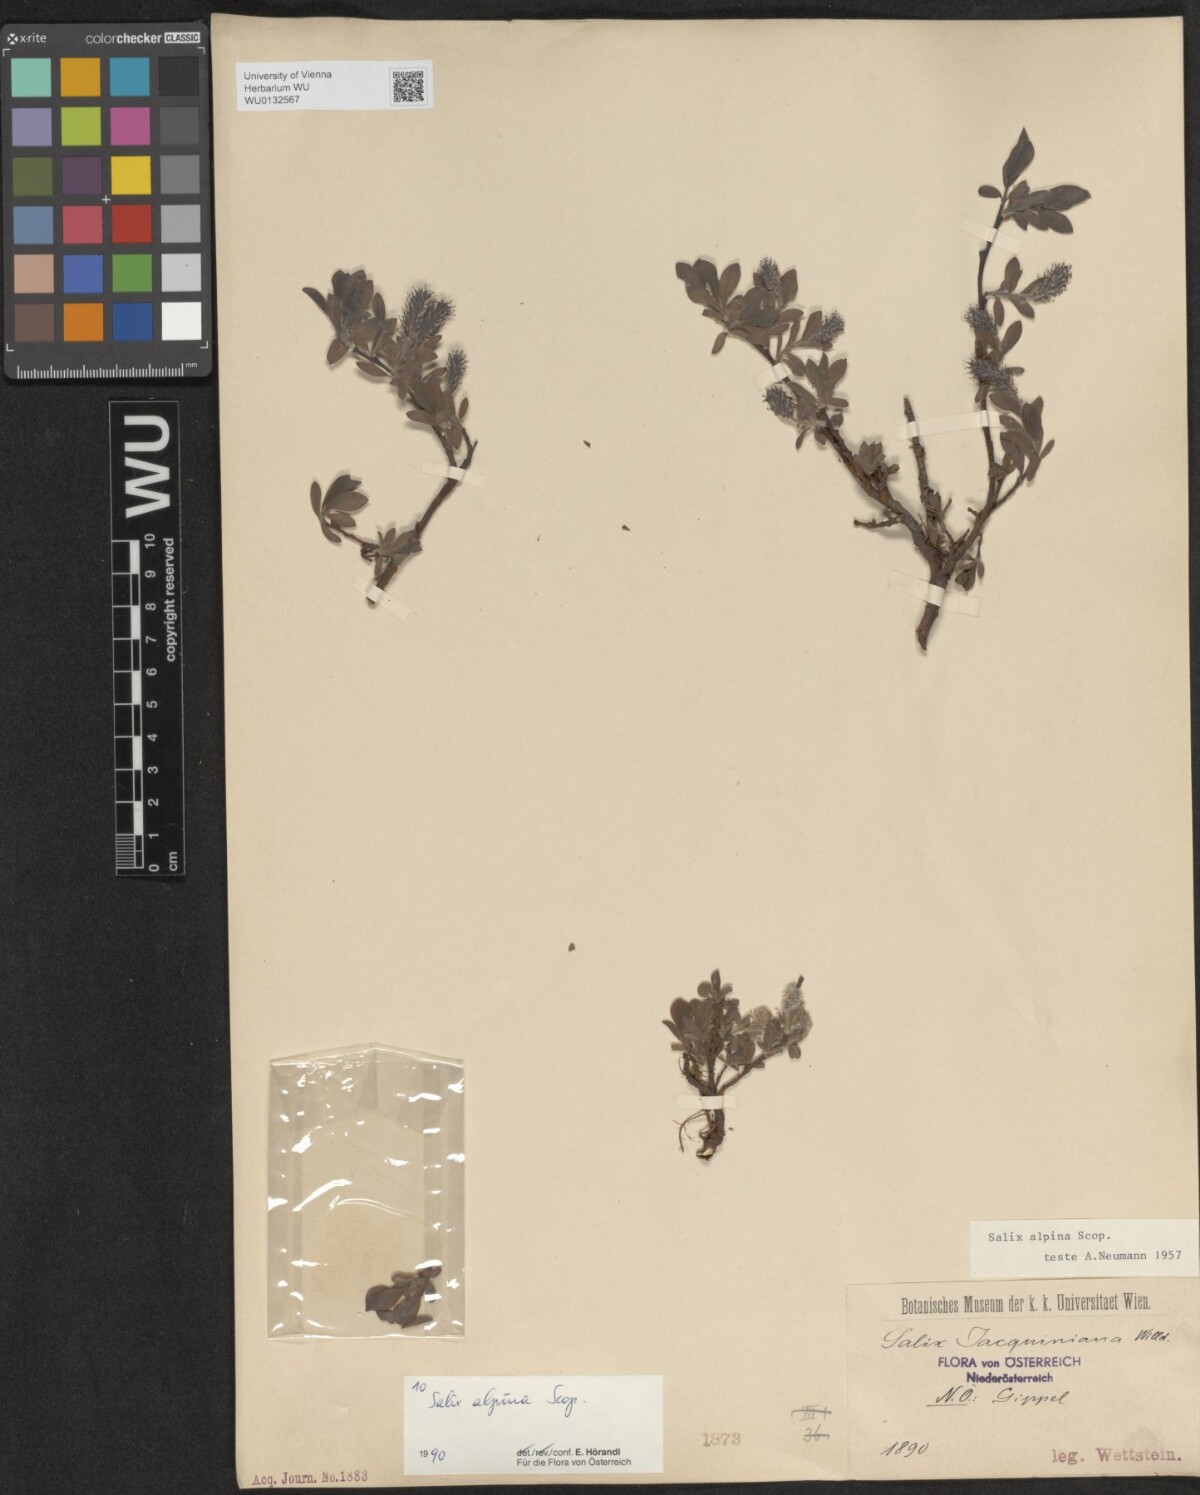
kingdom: Plantae
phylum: Tracheophyta
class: Magnoliopsida
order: Malpighiales
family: Salicaceae
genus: Salix
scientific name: Salix alpina
